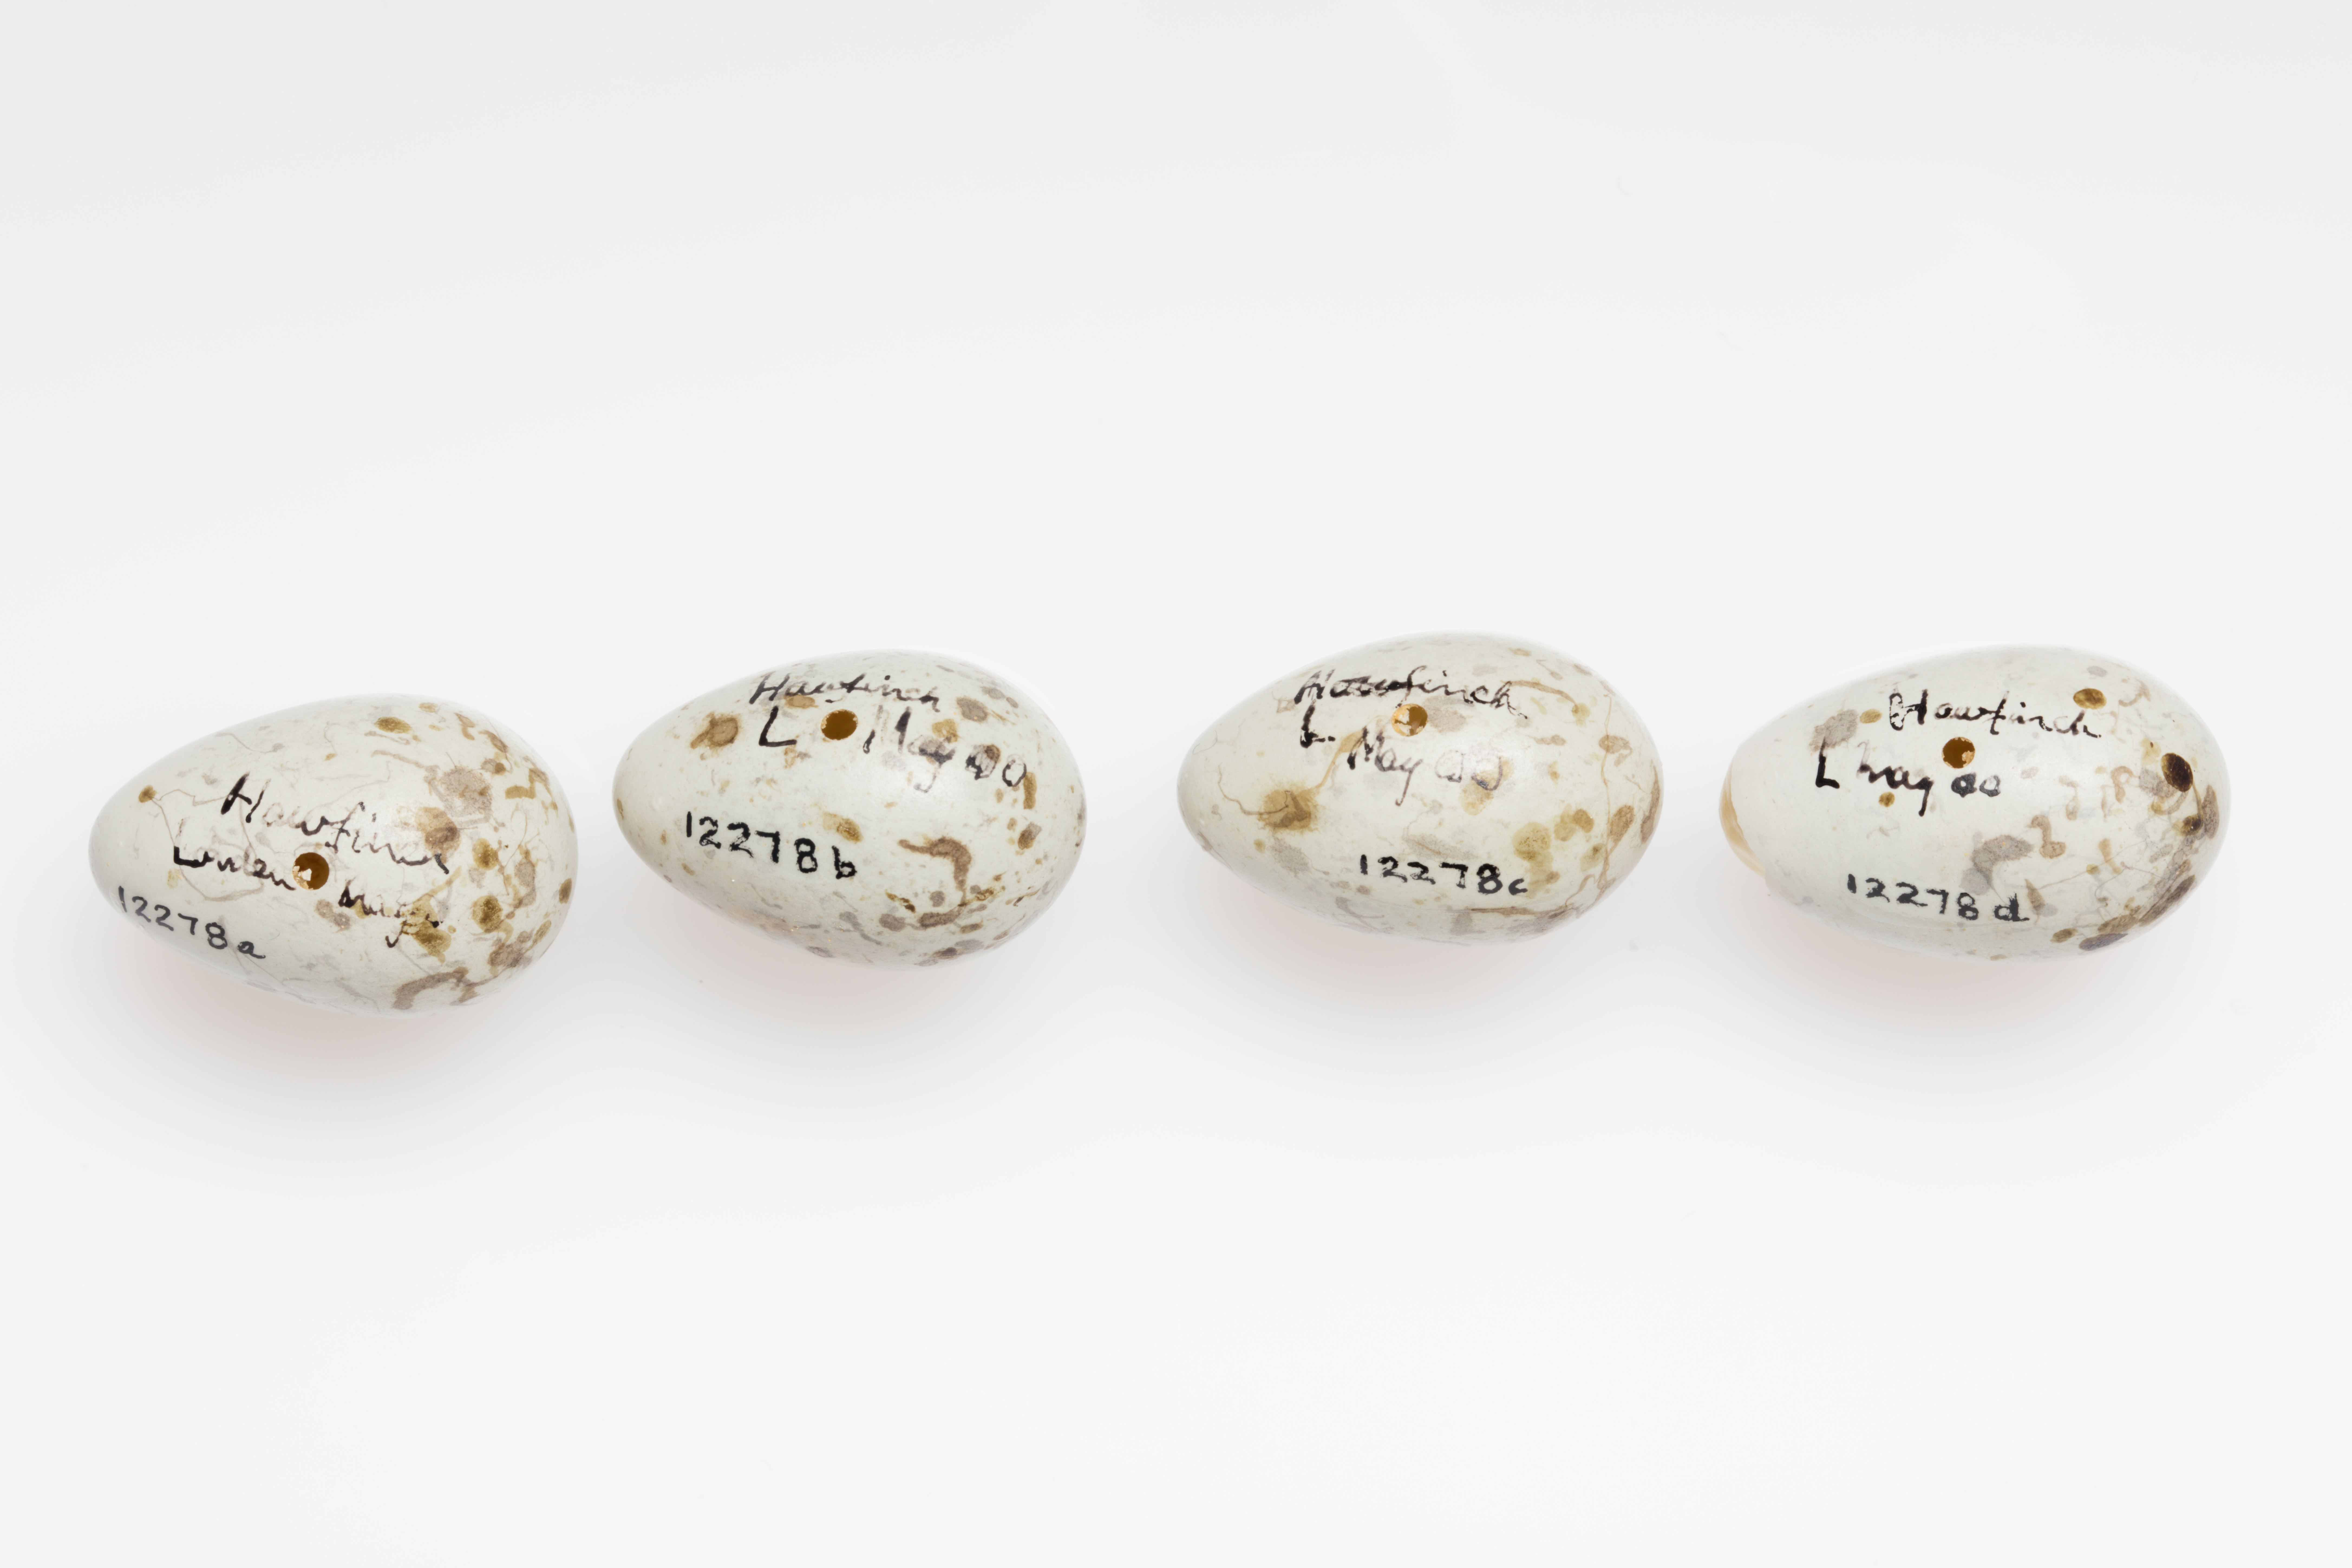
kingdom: Animalia
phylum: Chordata
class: Aves
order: Passeriformes
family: Fringillidae
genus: Coccothraustes
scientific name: Coccothraustes coccothraustes
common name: Hawfinch
